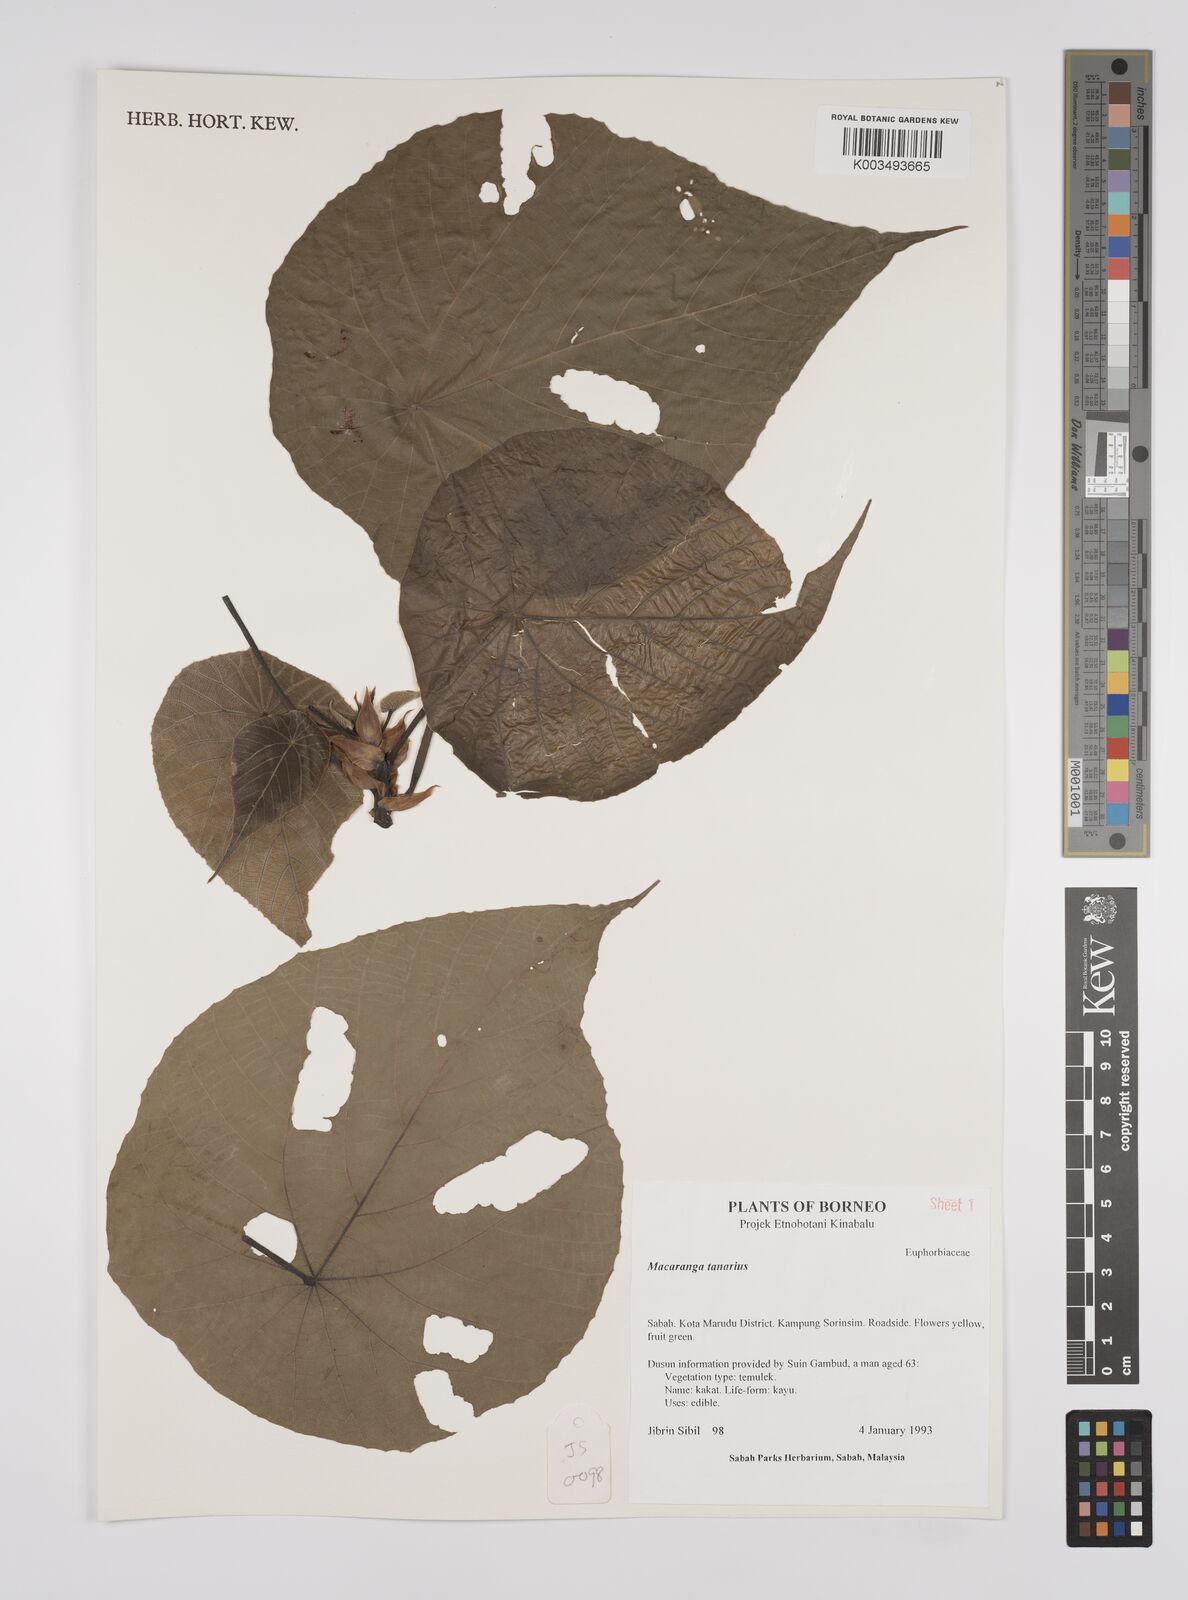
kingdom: Plantae
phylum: Tracheophyta
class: Magnoliopsida
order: Malpighiales
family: Euphorbiaceae
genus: Macaranga
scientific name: Macaranga tanarius
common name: Parasol leaf tree
